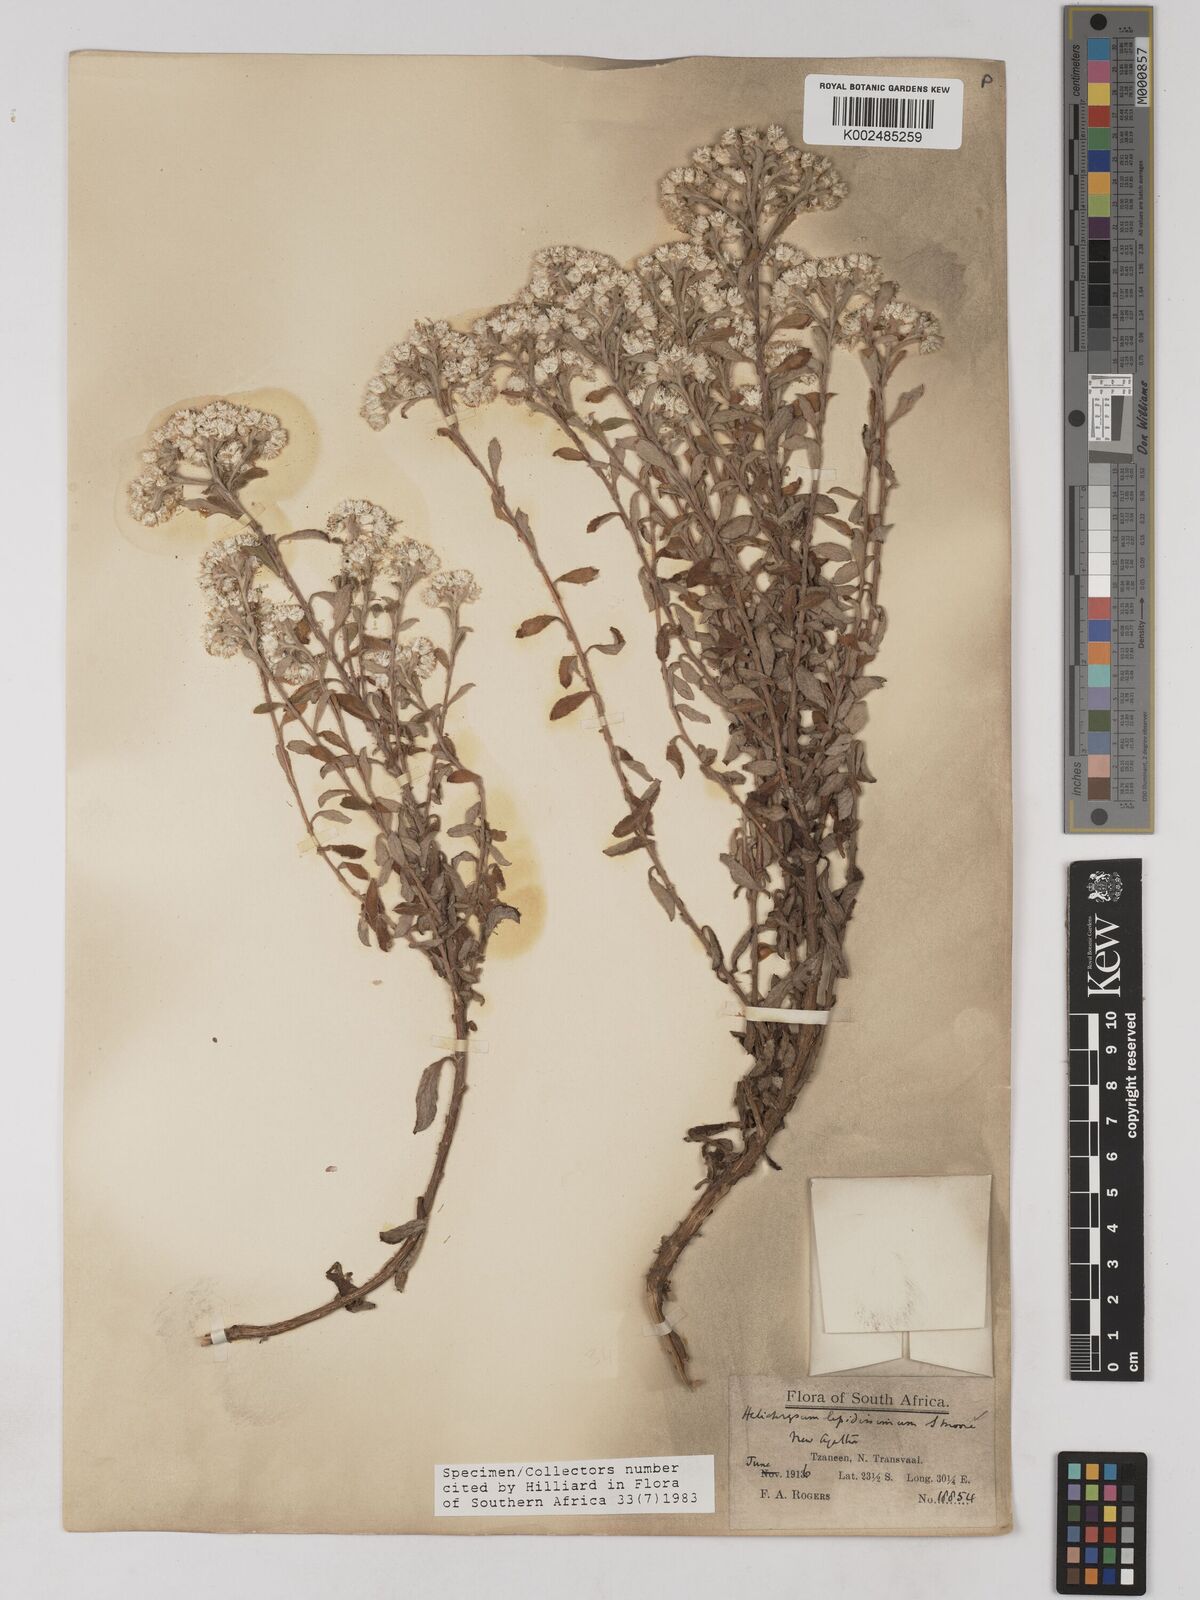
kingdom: Plantae
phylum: Tracheophyta
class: Magnoliopsida
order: Asterales
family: Asteraceae
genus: Helichrysum
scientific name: Helichrysum lepidissimum
